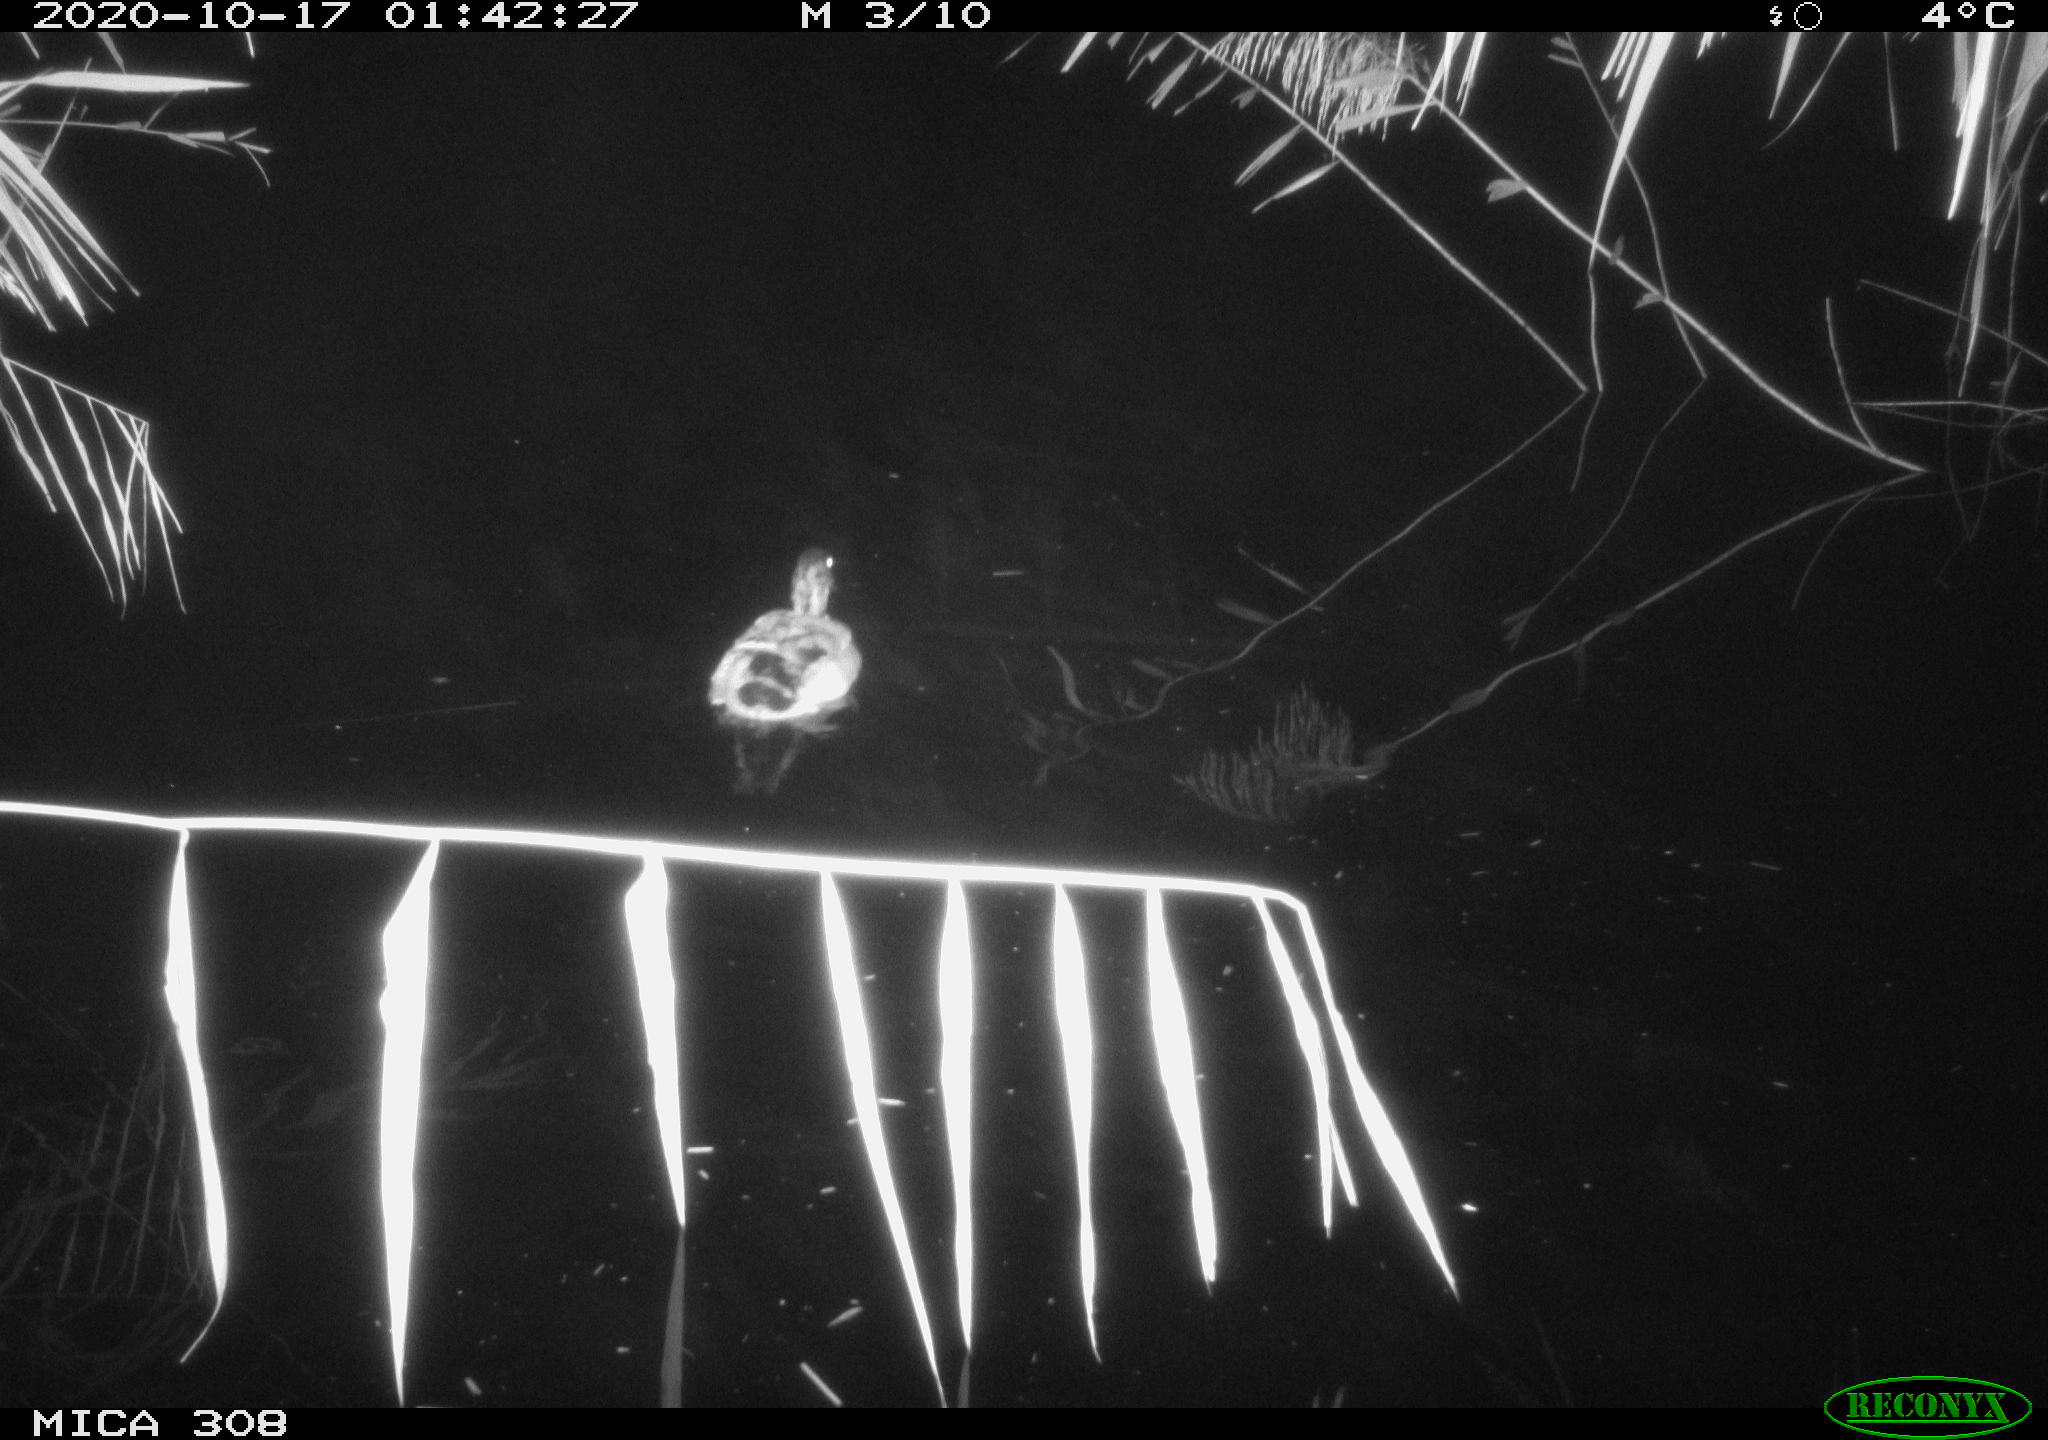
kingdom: Animalia
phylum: Chordata
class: Aves
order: Anseriformes
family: Anatidae
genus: Anas
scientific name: Anas platyrhynchos
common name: Mallard
